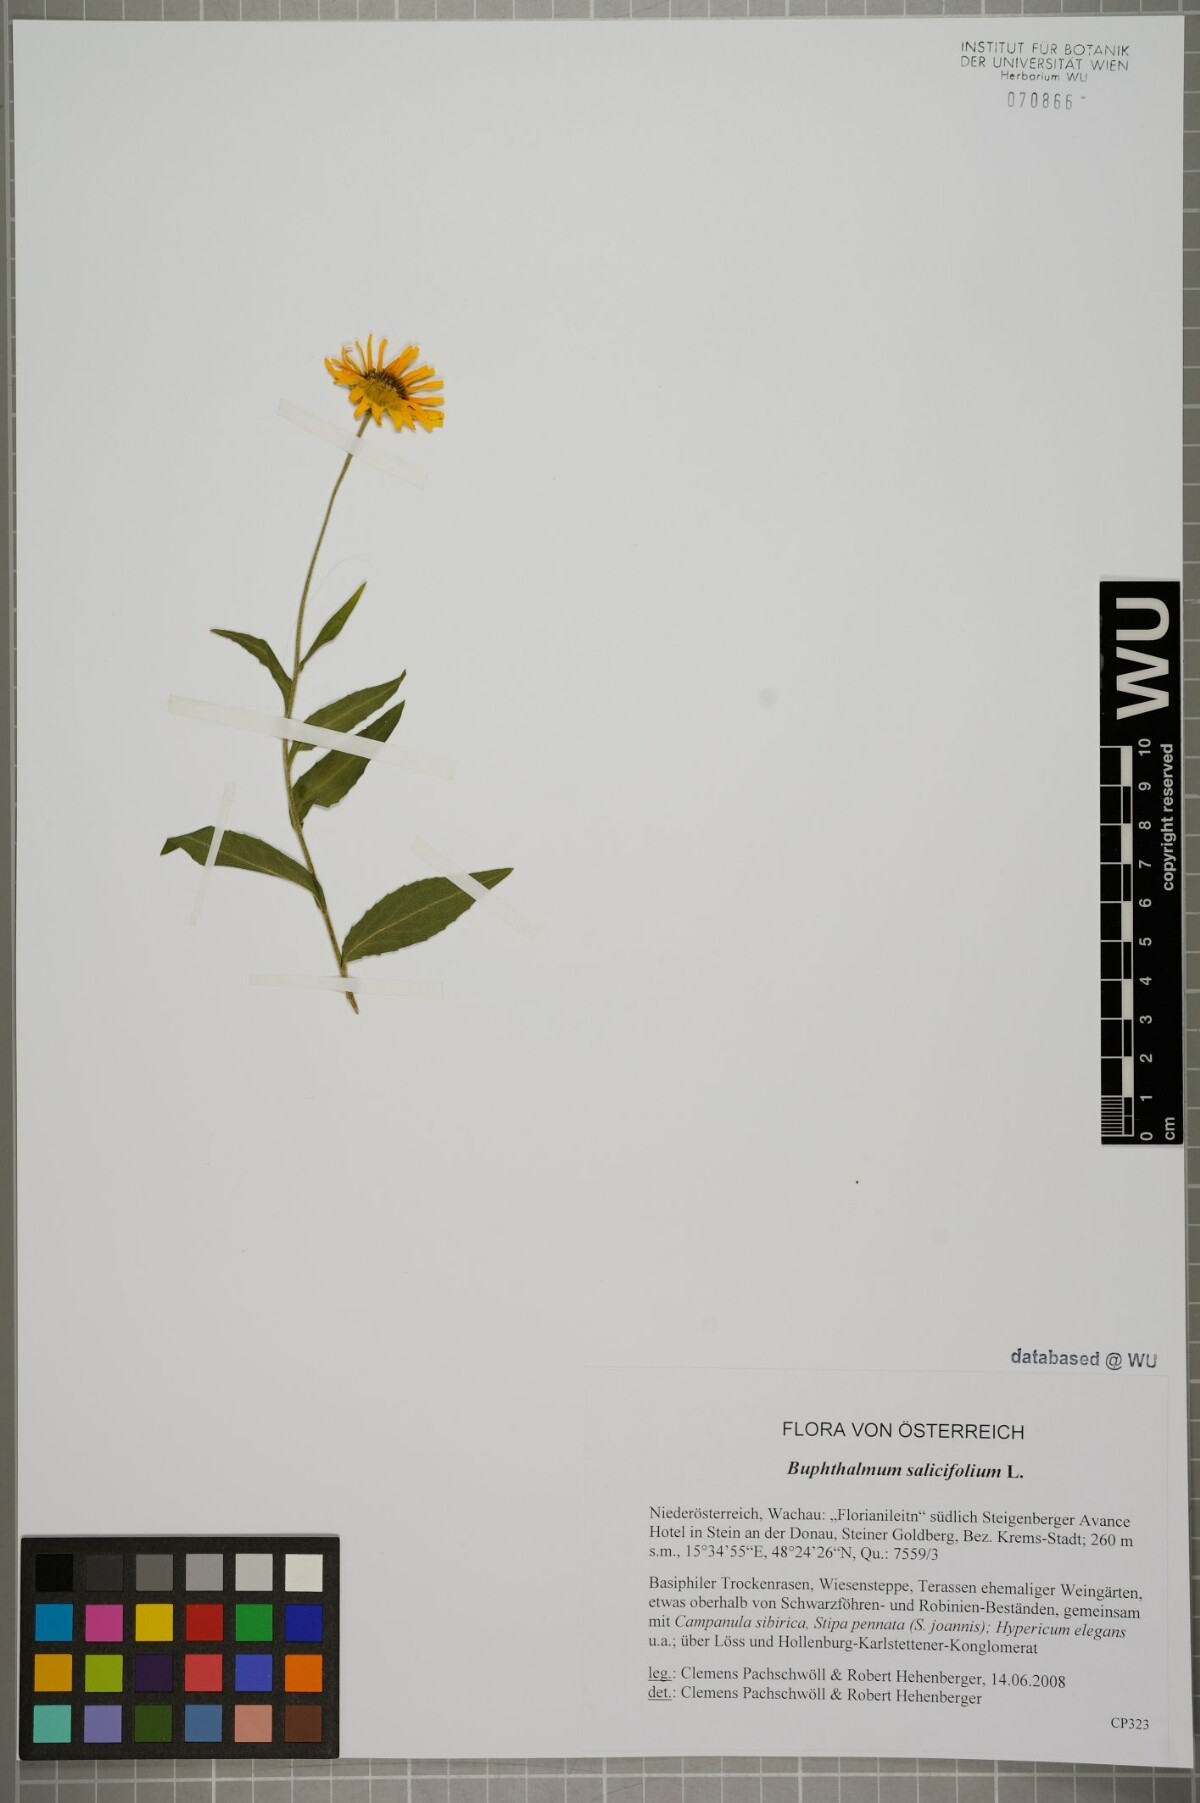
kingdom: Plantae
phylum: Tracheophyta
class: Magnoliopsida
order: Asterales
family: Asteraceae
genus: Buphthalmum
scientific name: Buphthalmum salicifolium
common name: Willow-leaved yellow-oxeye
